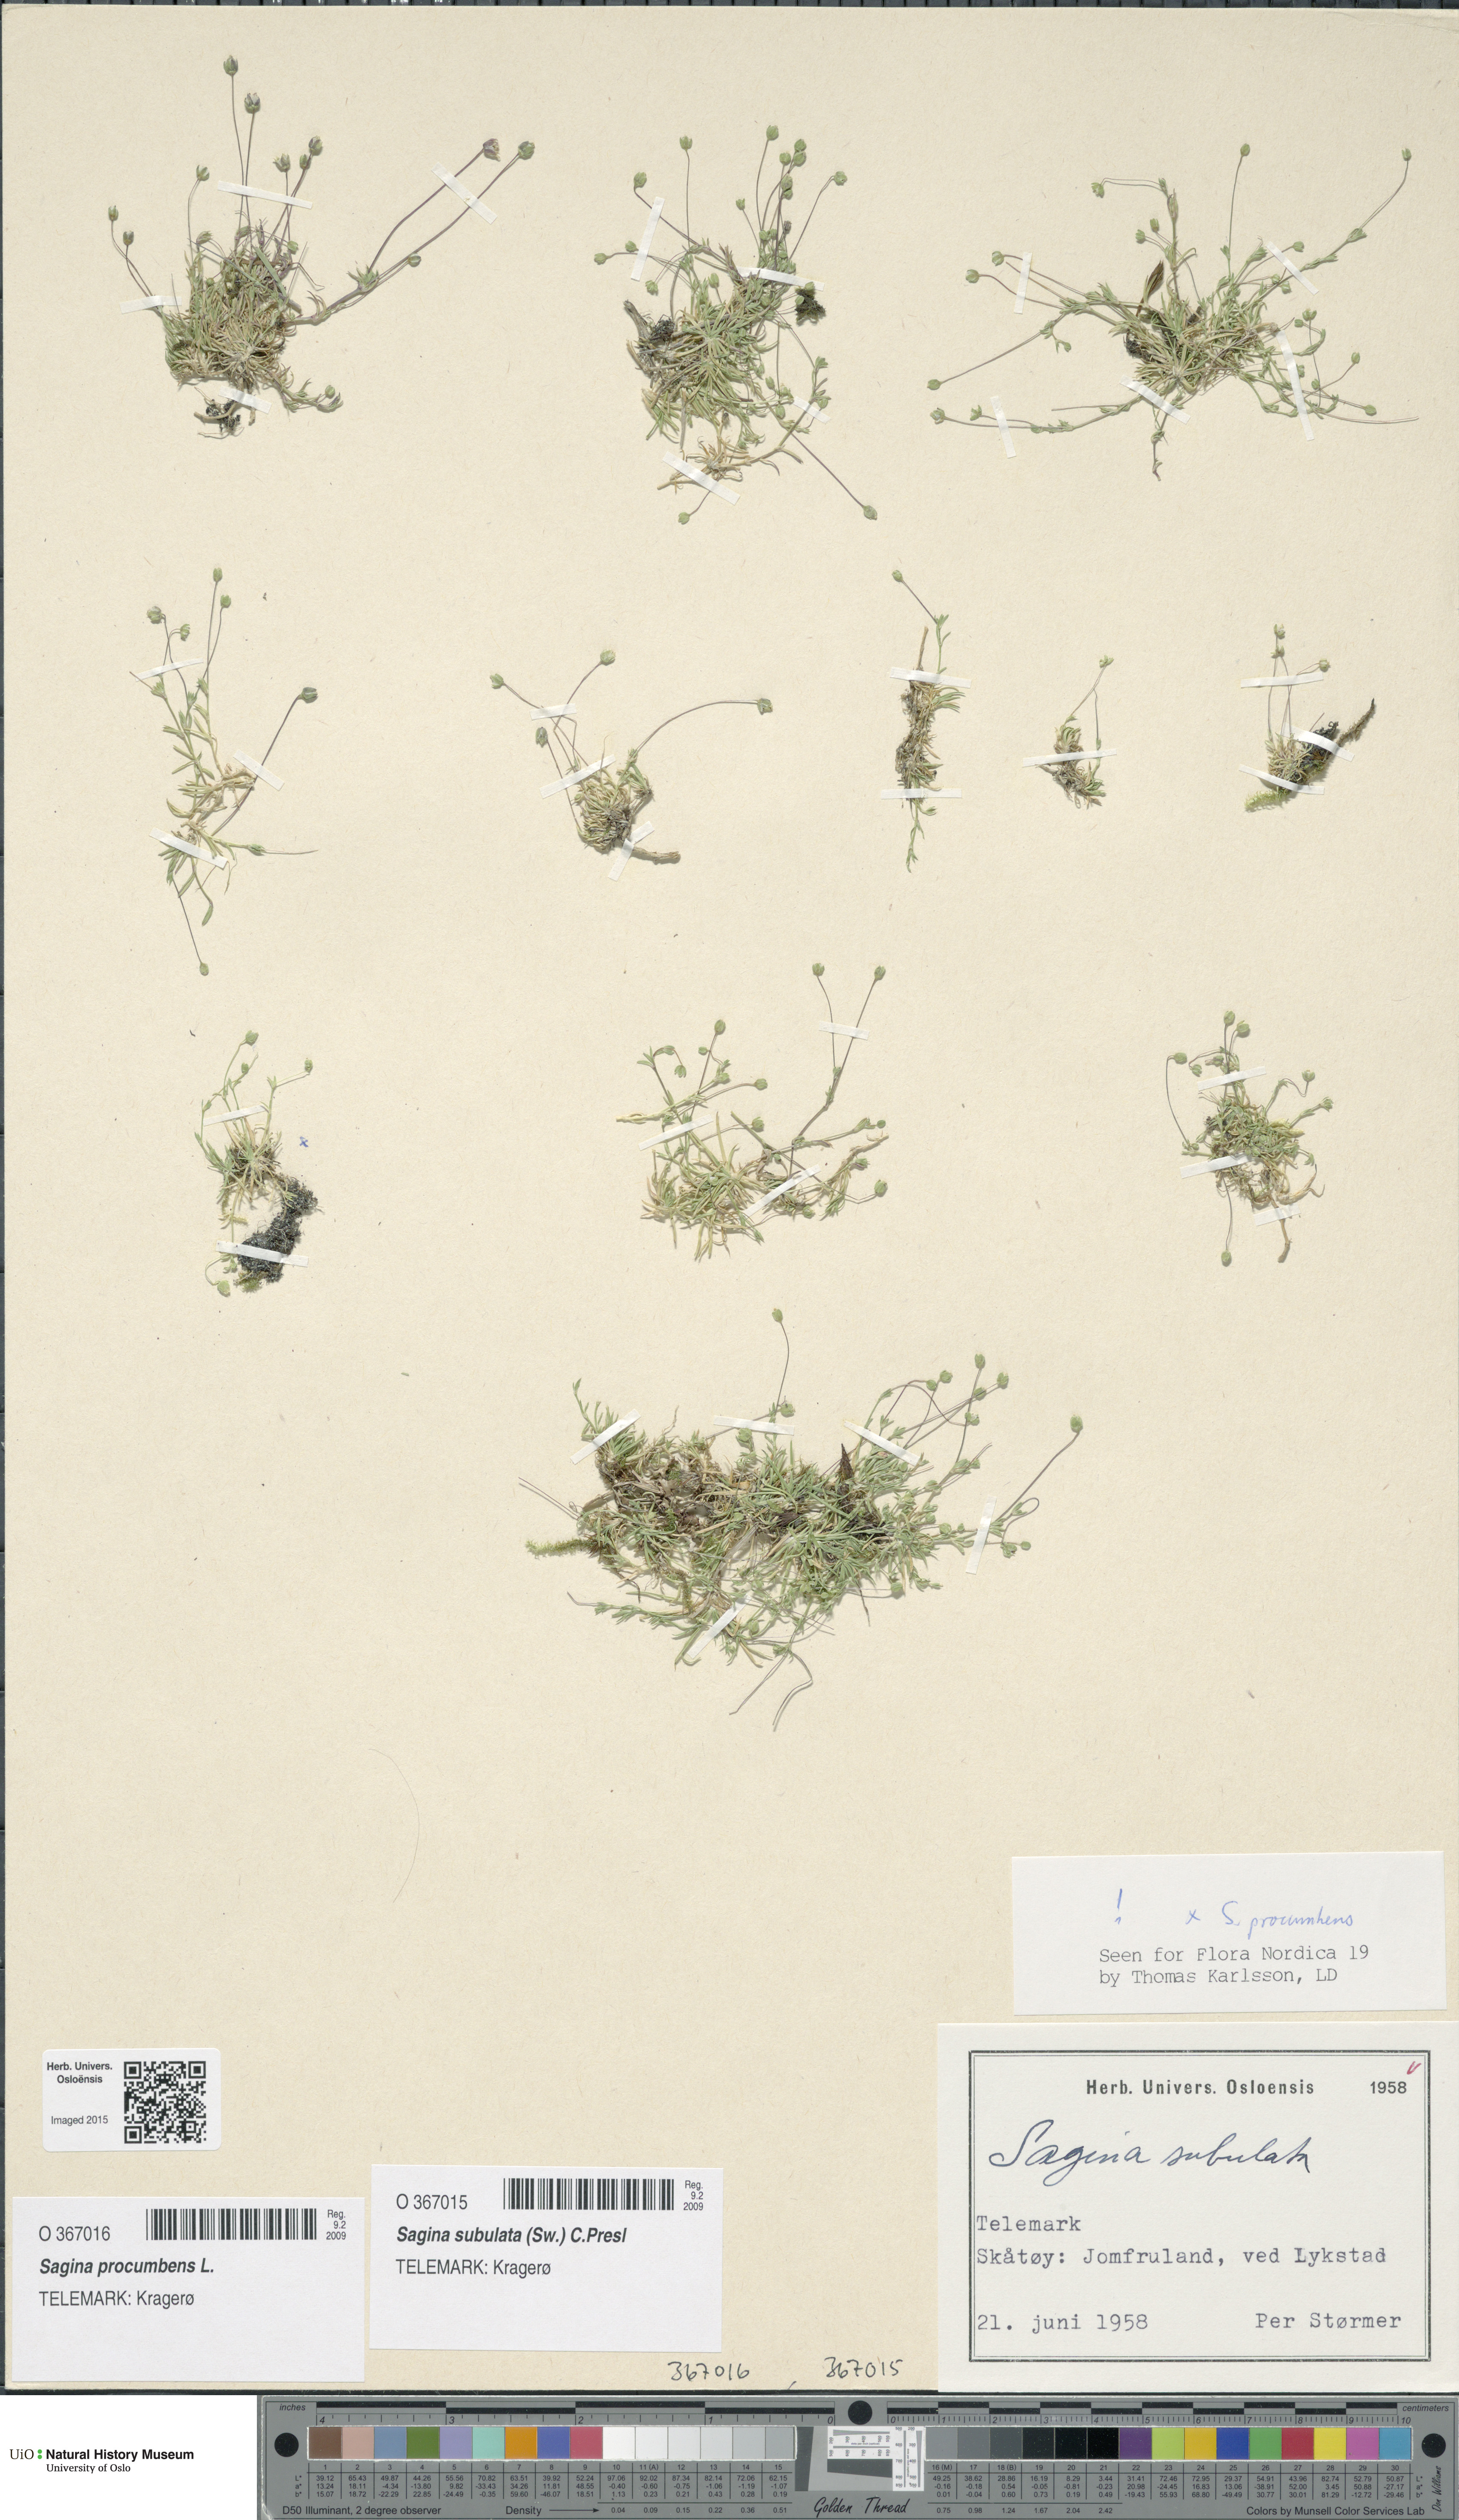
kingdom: Plantae
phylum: Tracheophyta
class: Magnoliopsida
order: Caryophyllales
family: Caryophyllaceae
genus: Sagina
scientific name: Sagina procumbens
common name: Procumbent pearlwort
